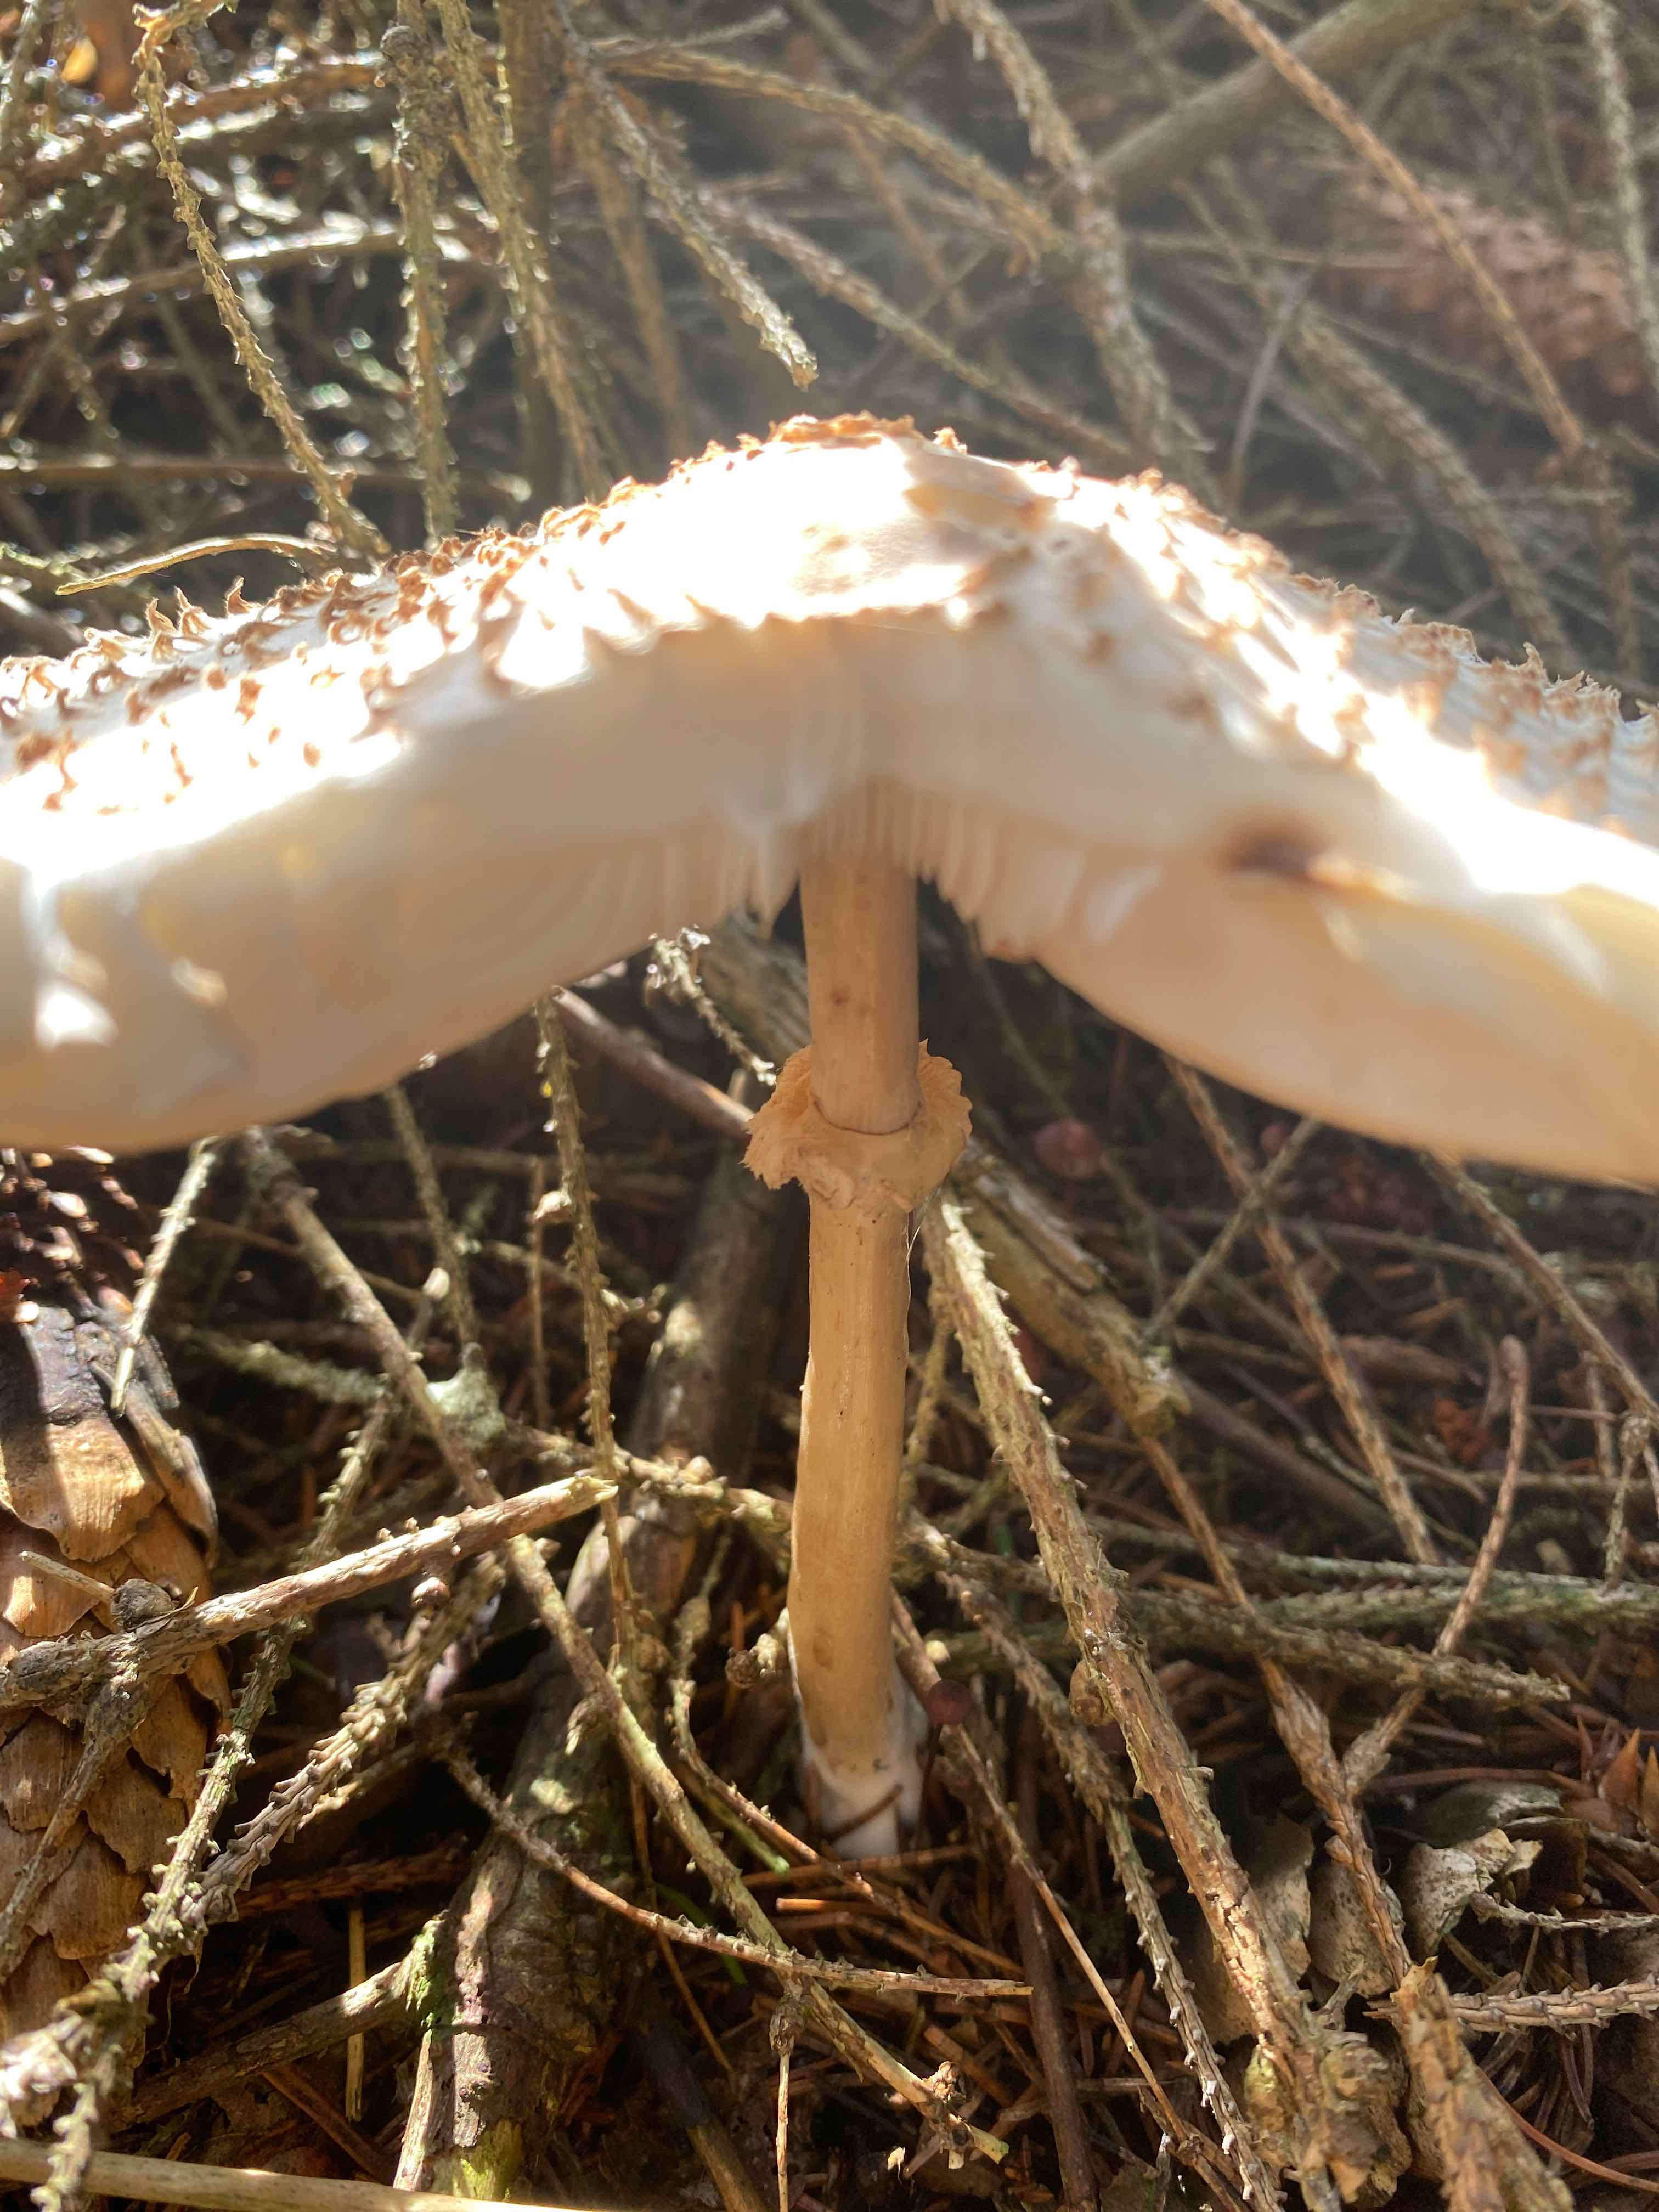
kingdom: Fungi
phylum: Basidiomycota
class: Agaricomycetes
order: Agaricales
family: Agaricaceae
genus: Leucoagaricus
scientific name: Leucoagaricus nympharum
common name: gran-silkehat
